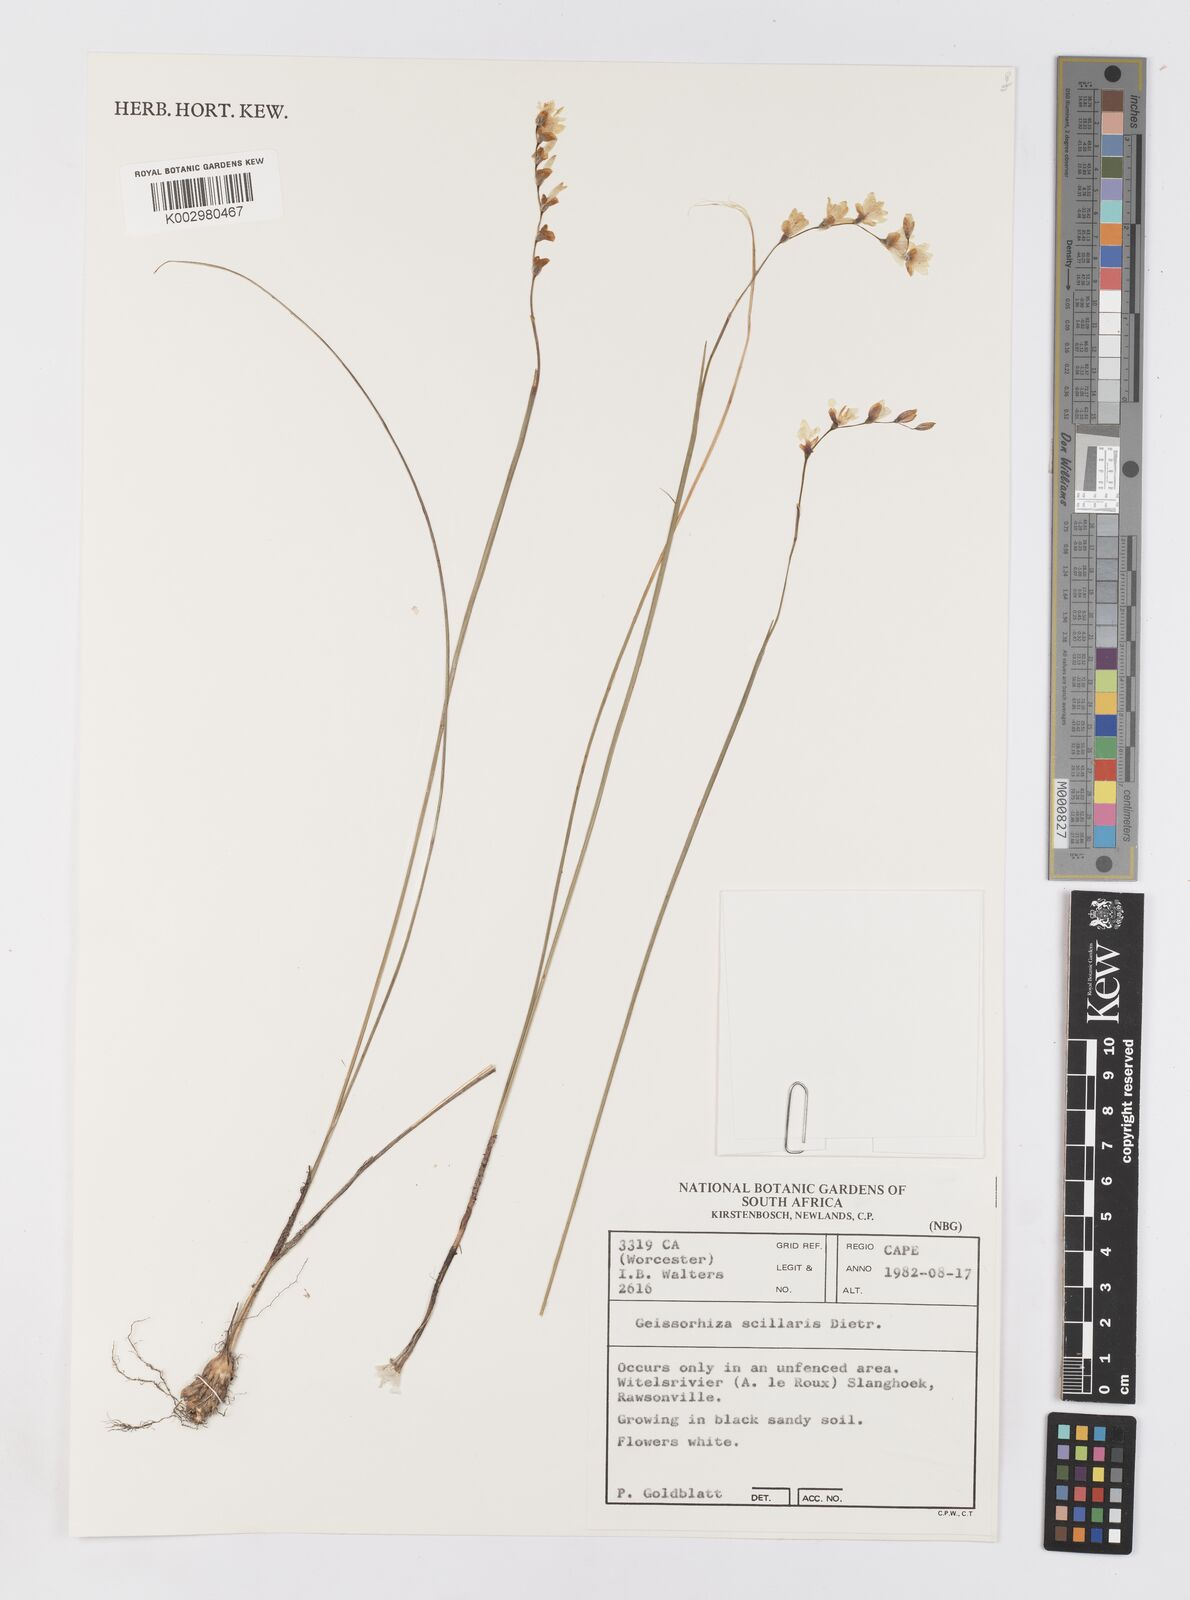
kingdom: Plantae
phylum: Tracheophyta
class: Liliopsida
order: Asparagales
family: Iridaceae
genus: Geissorhiza
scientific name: Geissorhiza scillaris
